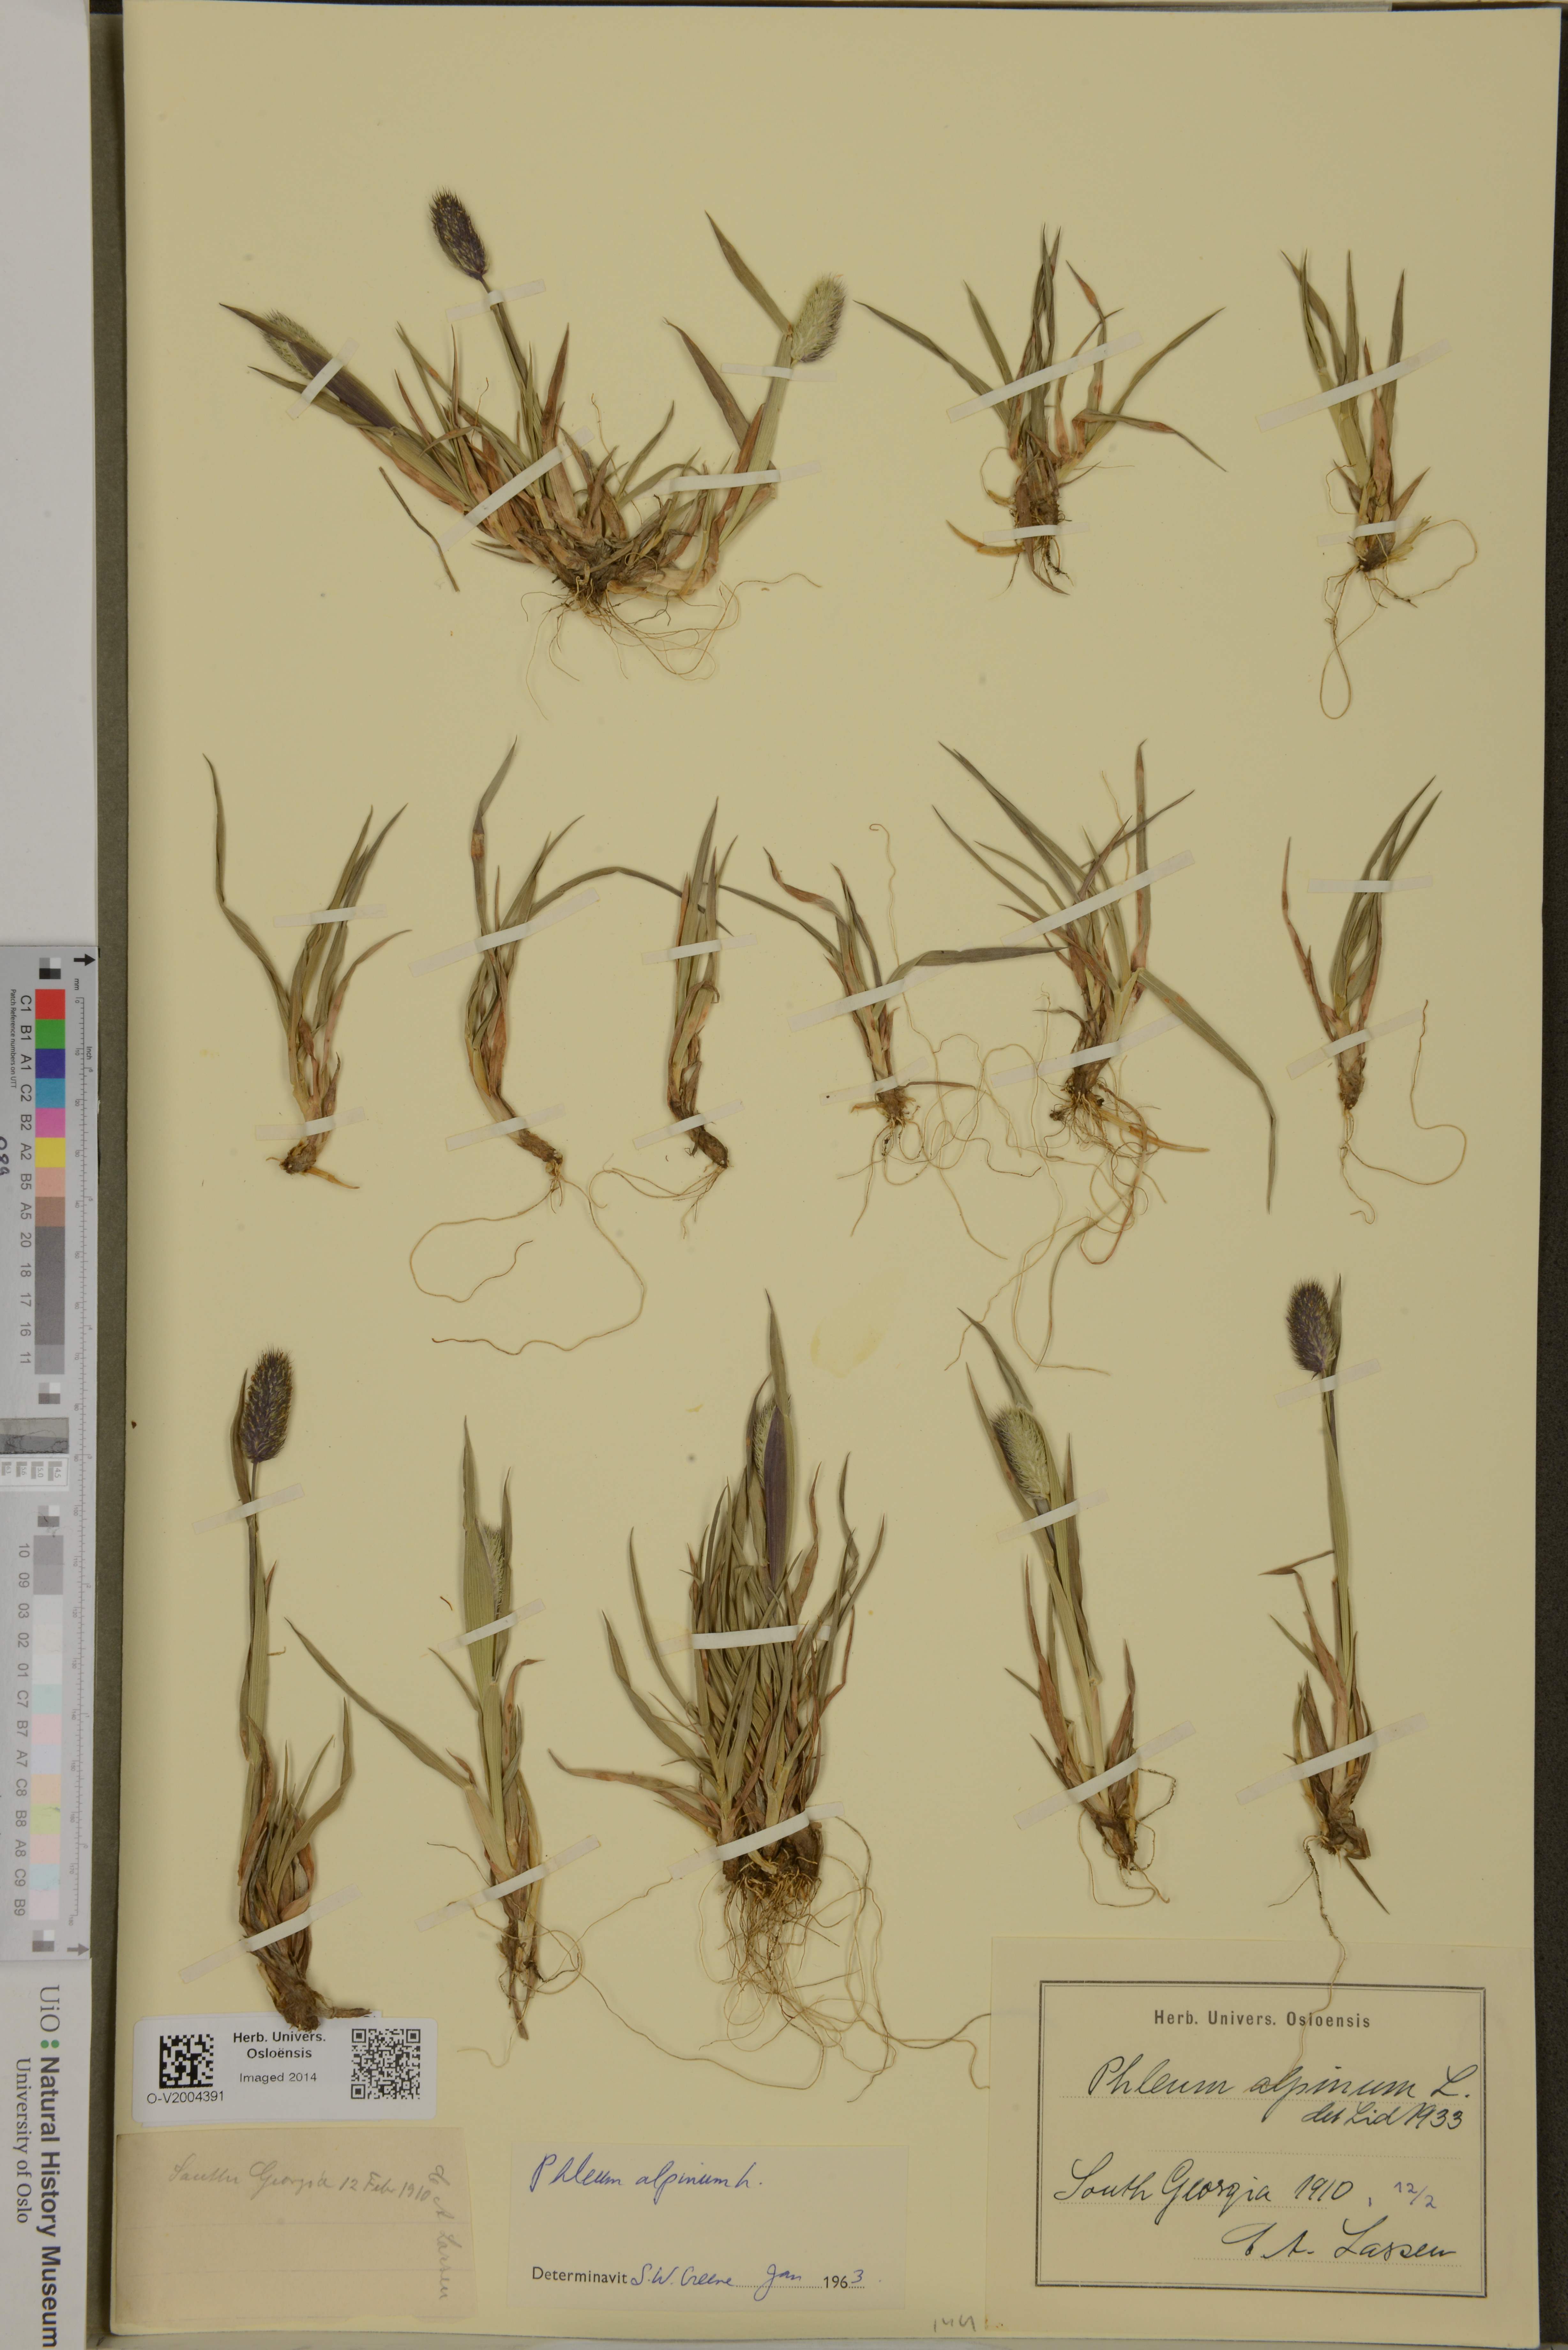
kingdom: Plantae
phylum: Tracheophyta
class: Liliopsida
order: Poales
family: Poaceae
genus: Phleum
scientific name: Phleum alpinum
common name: Alpine cat's-tail
